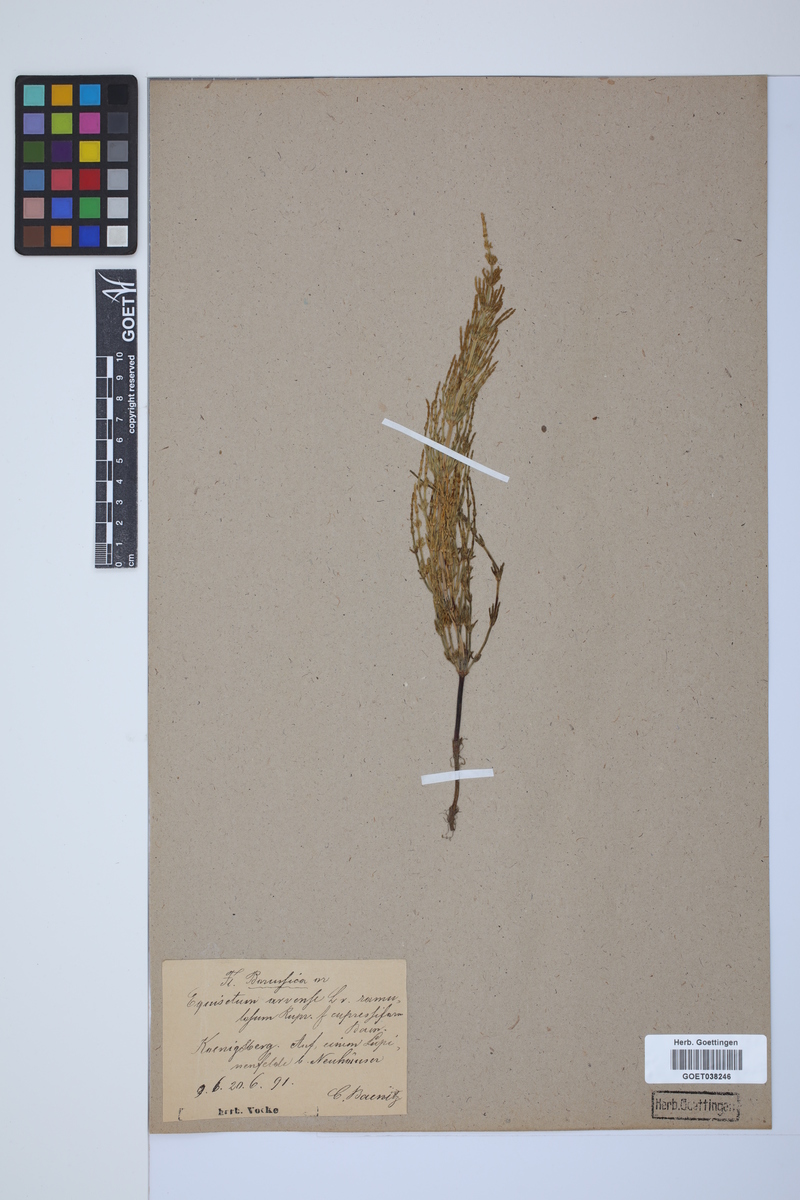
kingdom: Plantae
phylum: Tracheophyta
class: Polypodiopsida
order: Equisetales
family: Equisetaceae
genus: Equisetum
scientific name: Equisetum arvense
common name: Field horsetail
